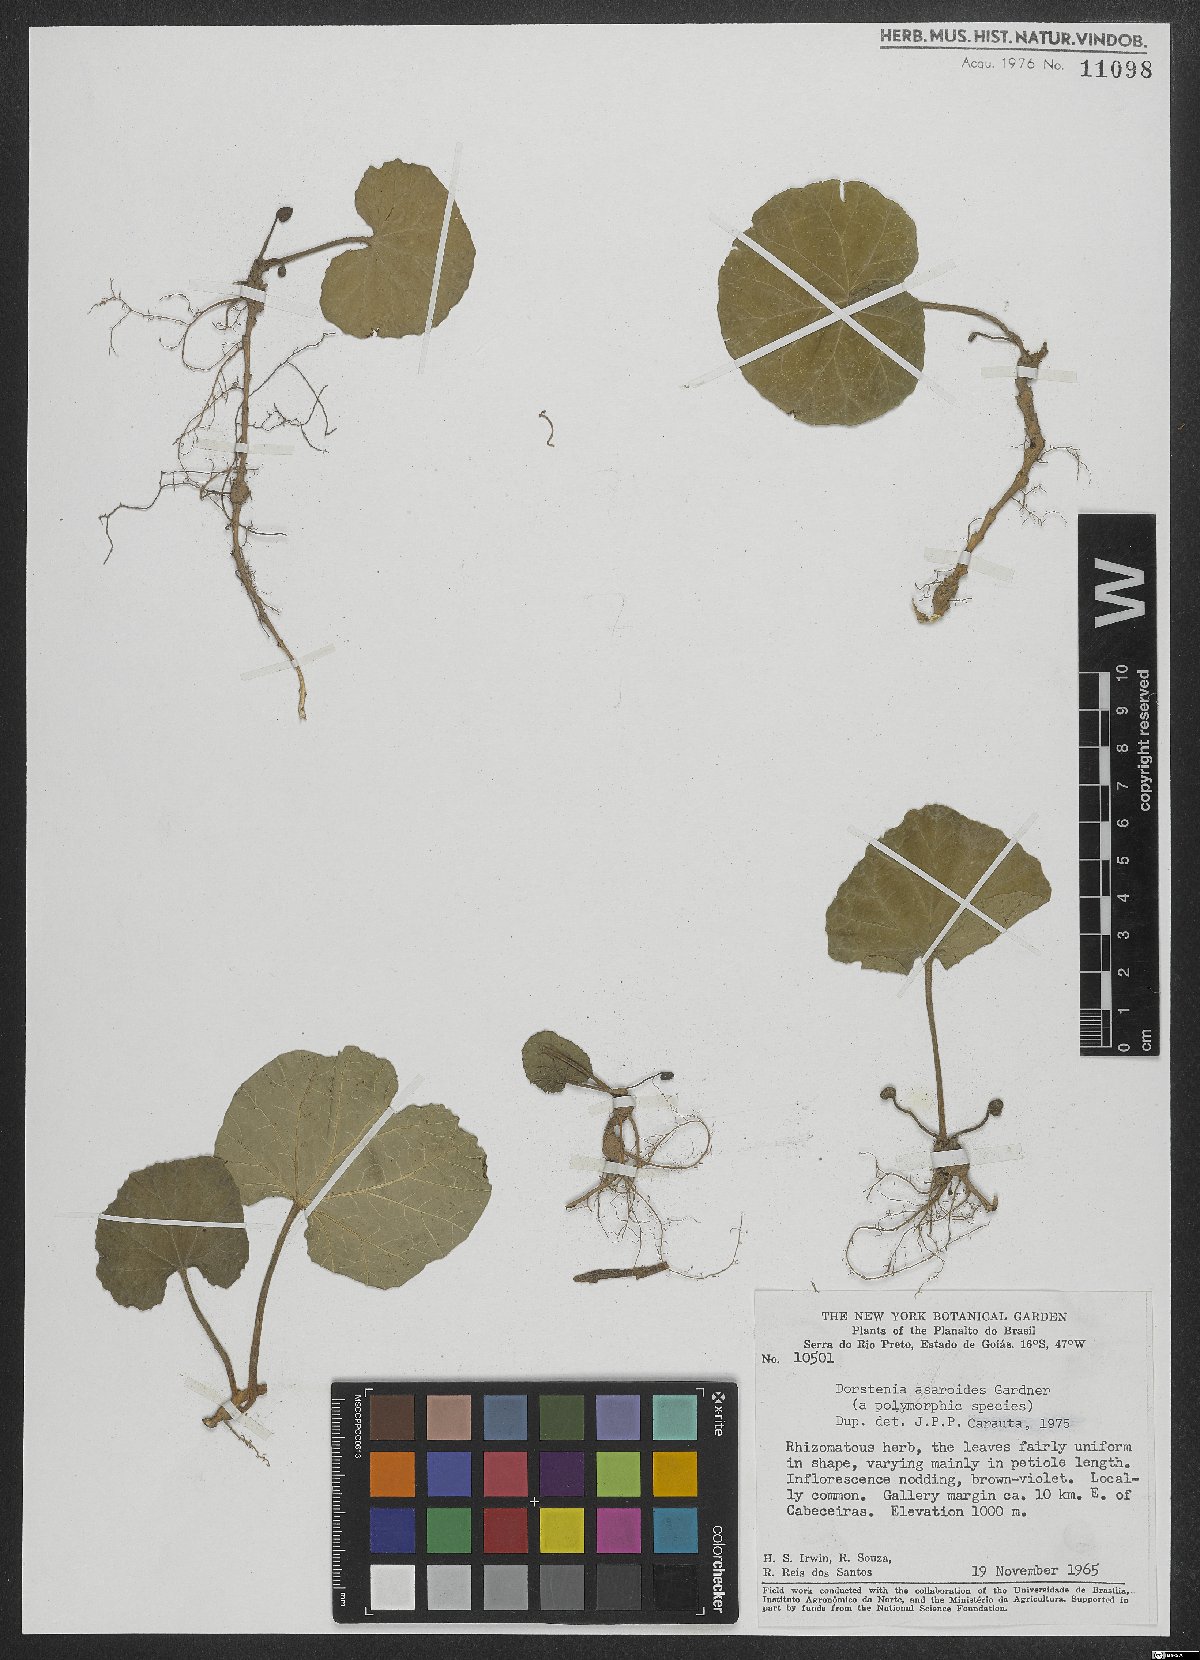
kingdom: Plantae
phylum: Tracheophyta
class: Magnoliopsida
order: Rosales
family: Moraceae
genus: Dorstenia
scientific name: Dorstenia cayapia
